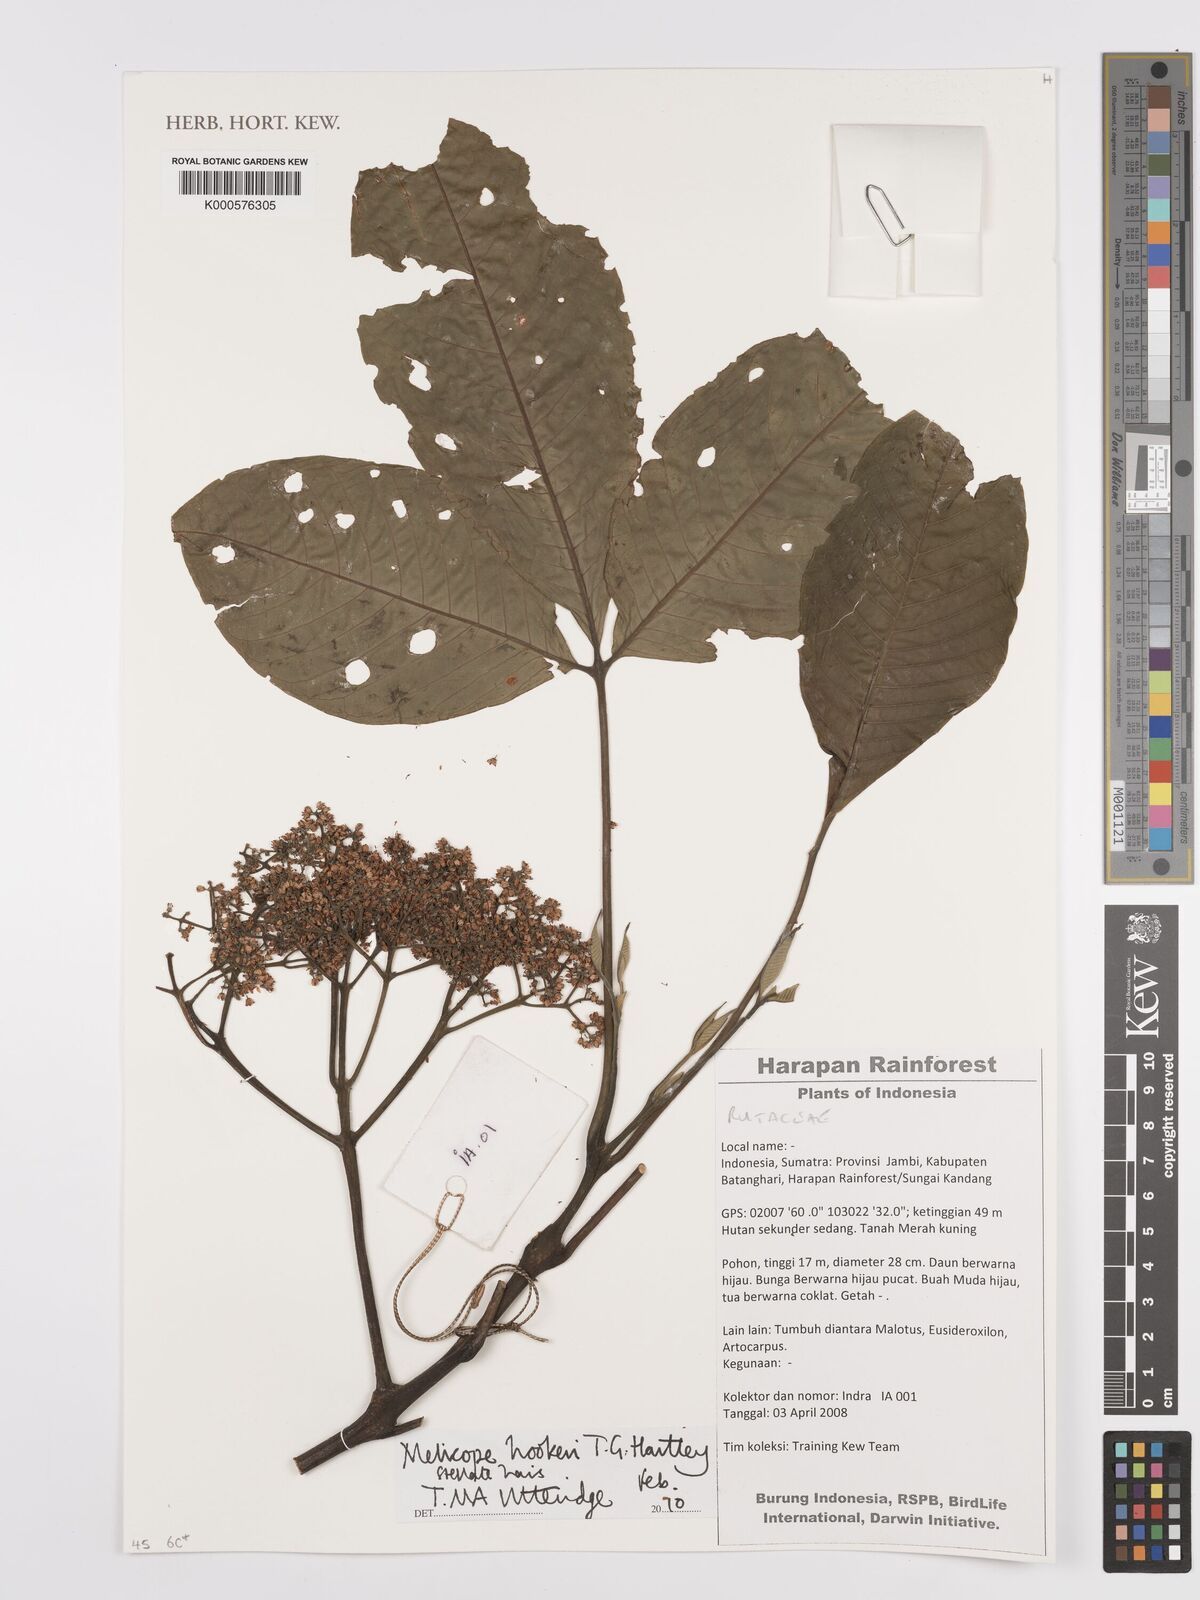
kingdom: Plantae
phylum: Tracheophyta
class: Magnoliopsida
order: Sapindales
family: Rutaceae
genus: Melicope
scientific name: Melicope hookeri
